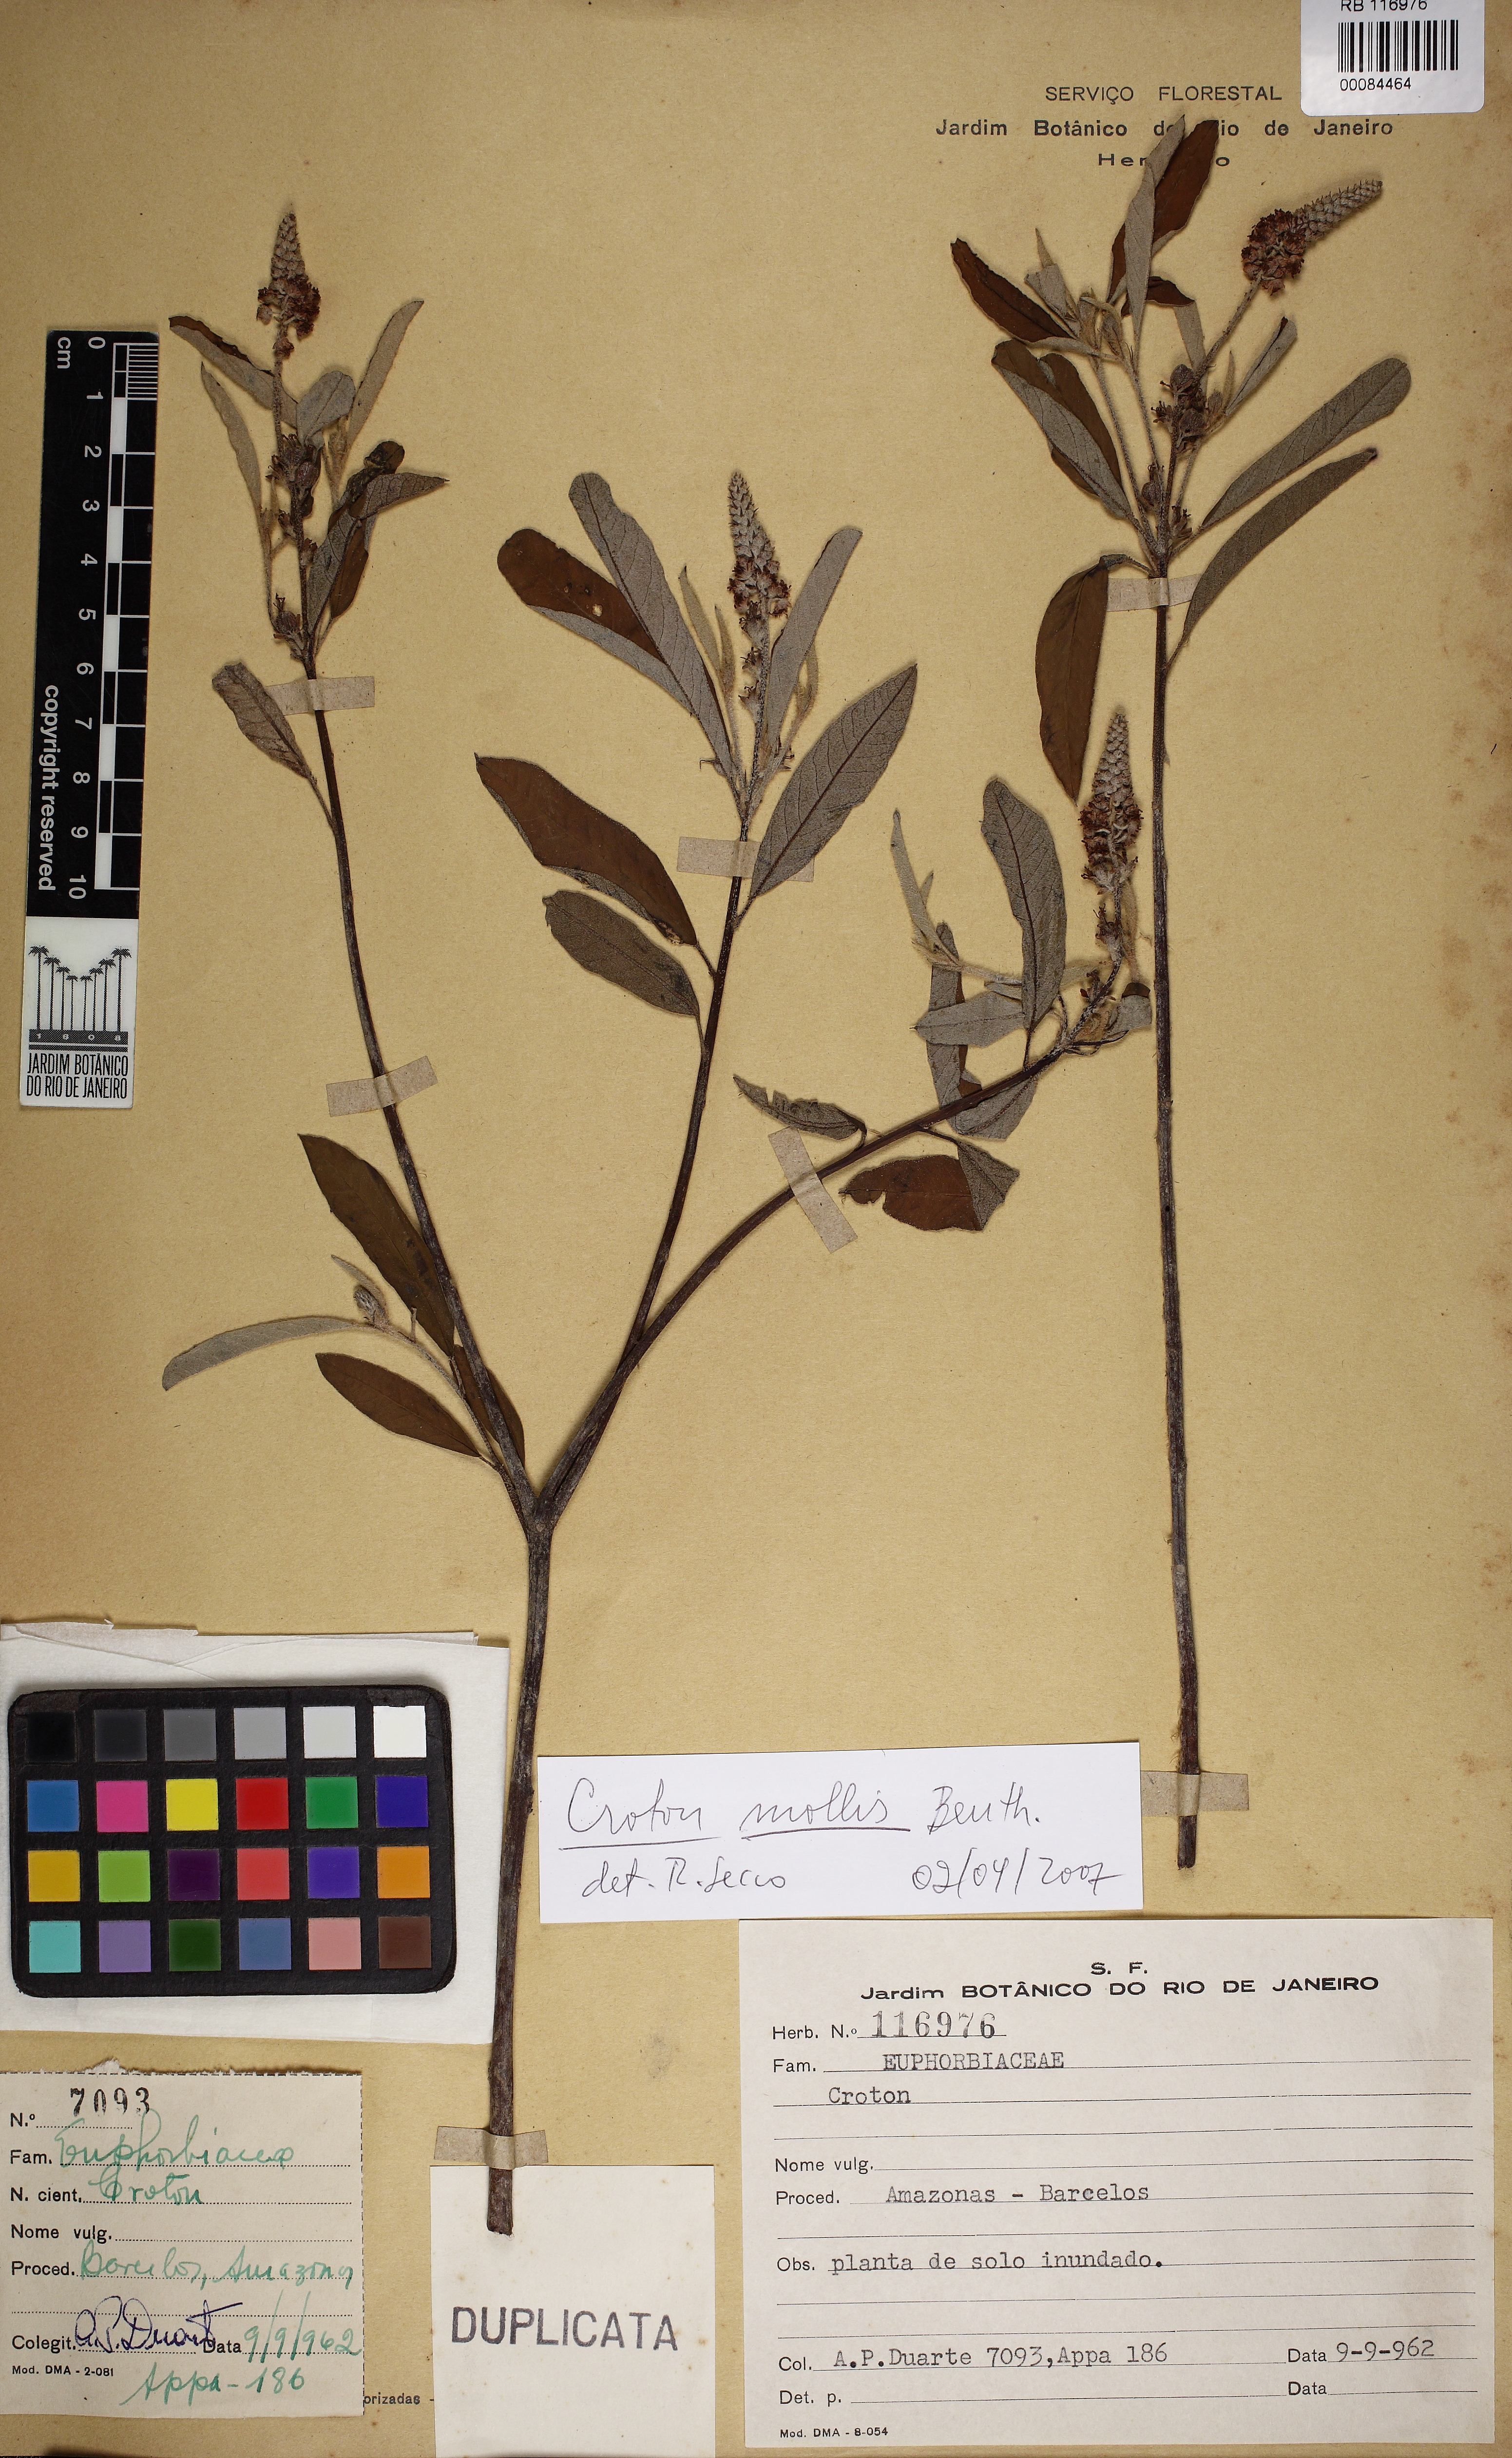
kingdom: Plantae
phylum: Tracheophyta
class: Magnoliopsida
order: Malpighiales
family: Euphorbiaceae
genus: Croton
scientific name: Croton mollis
